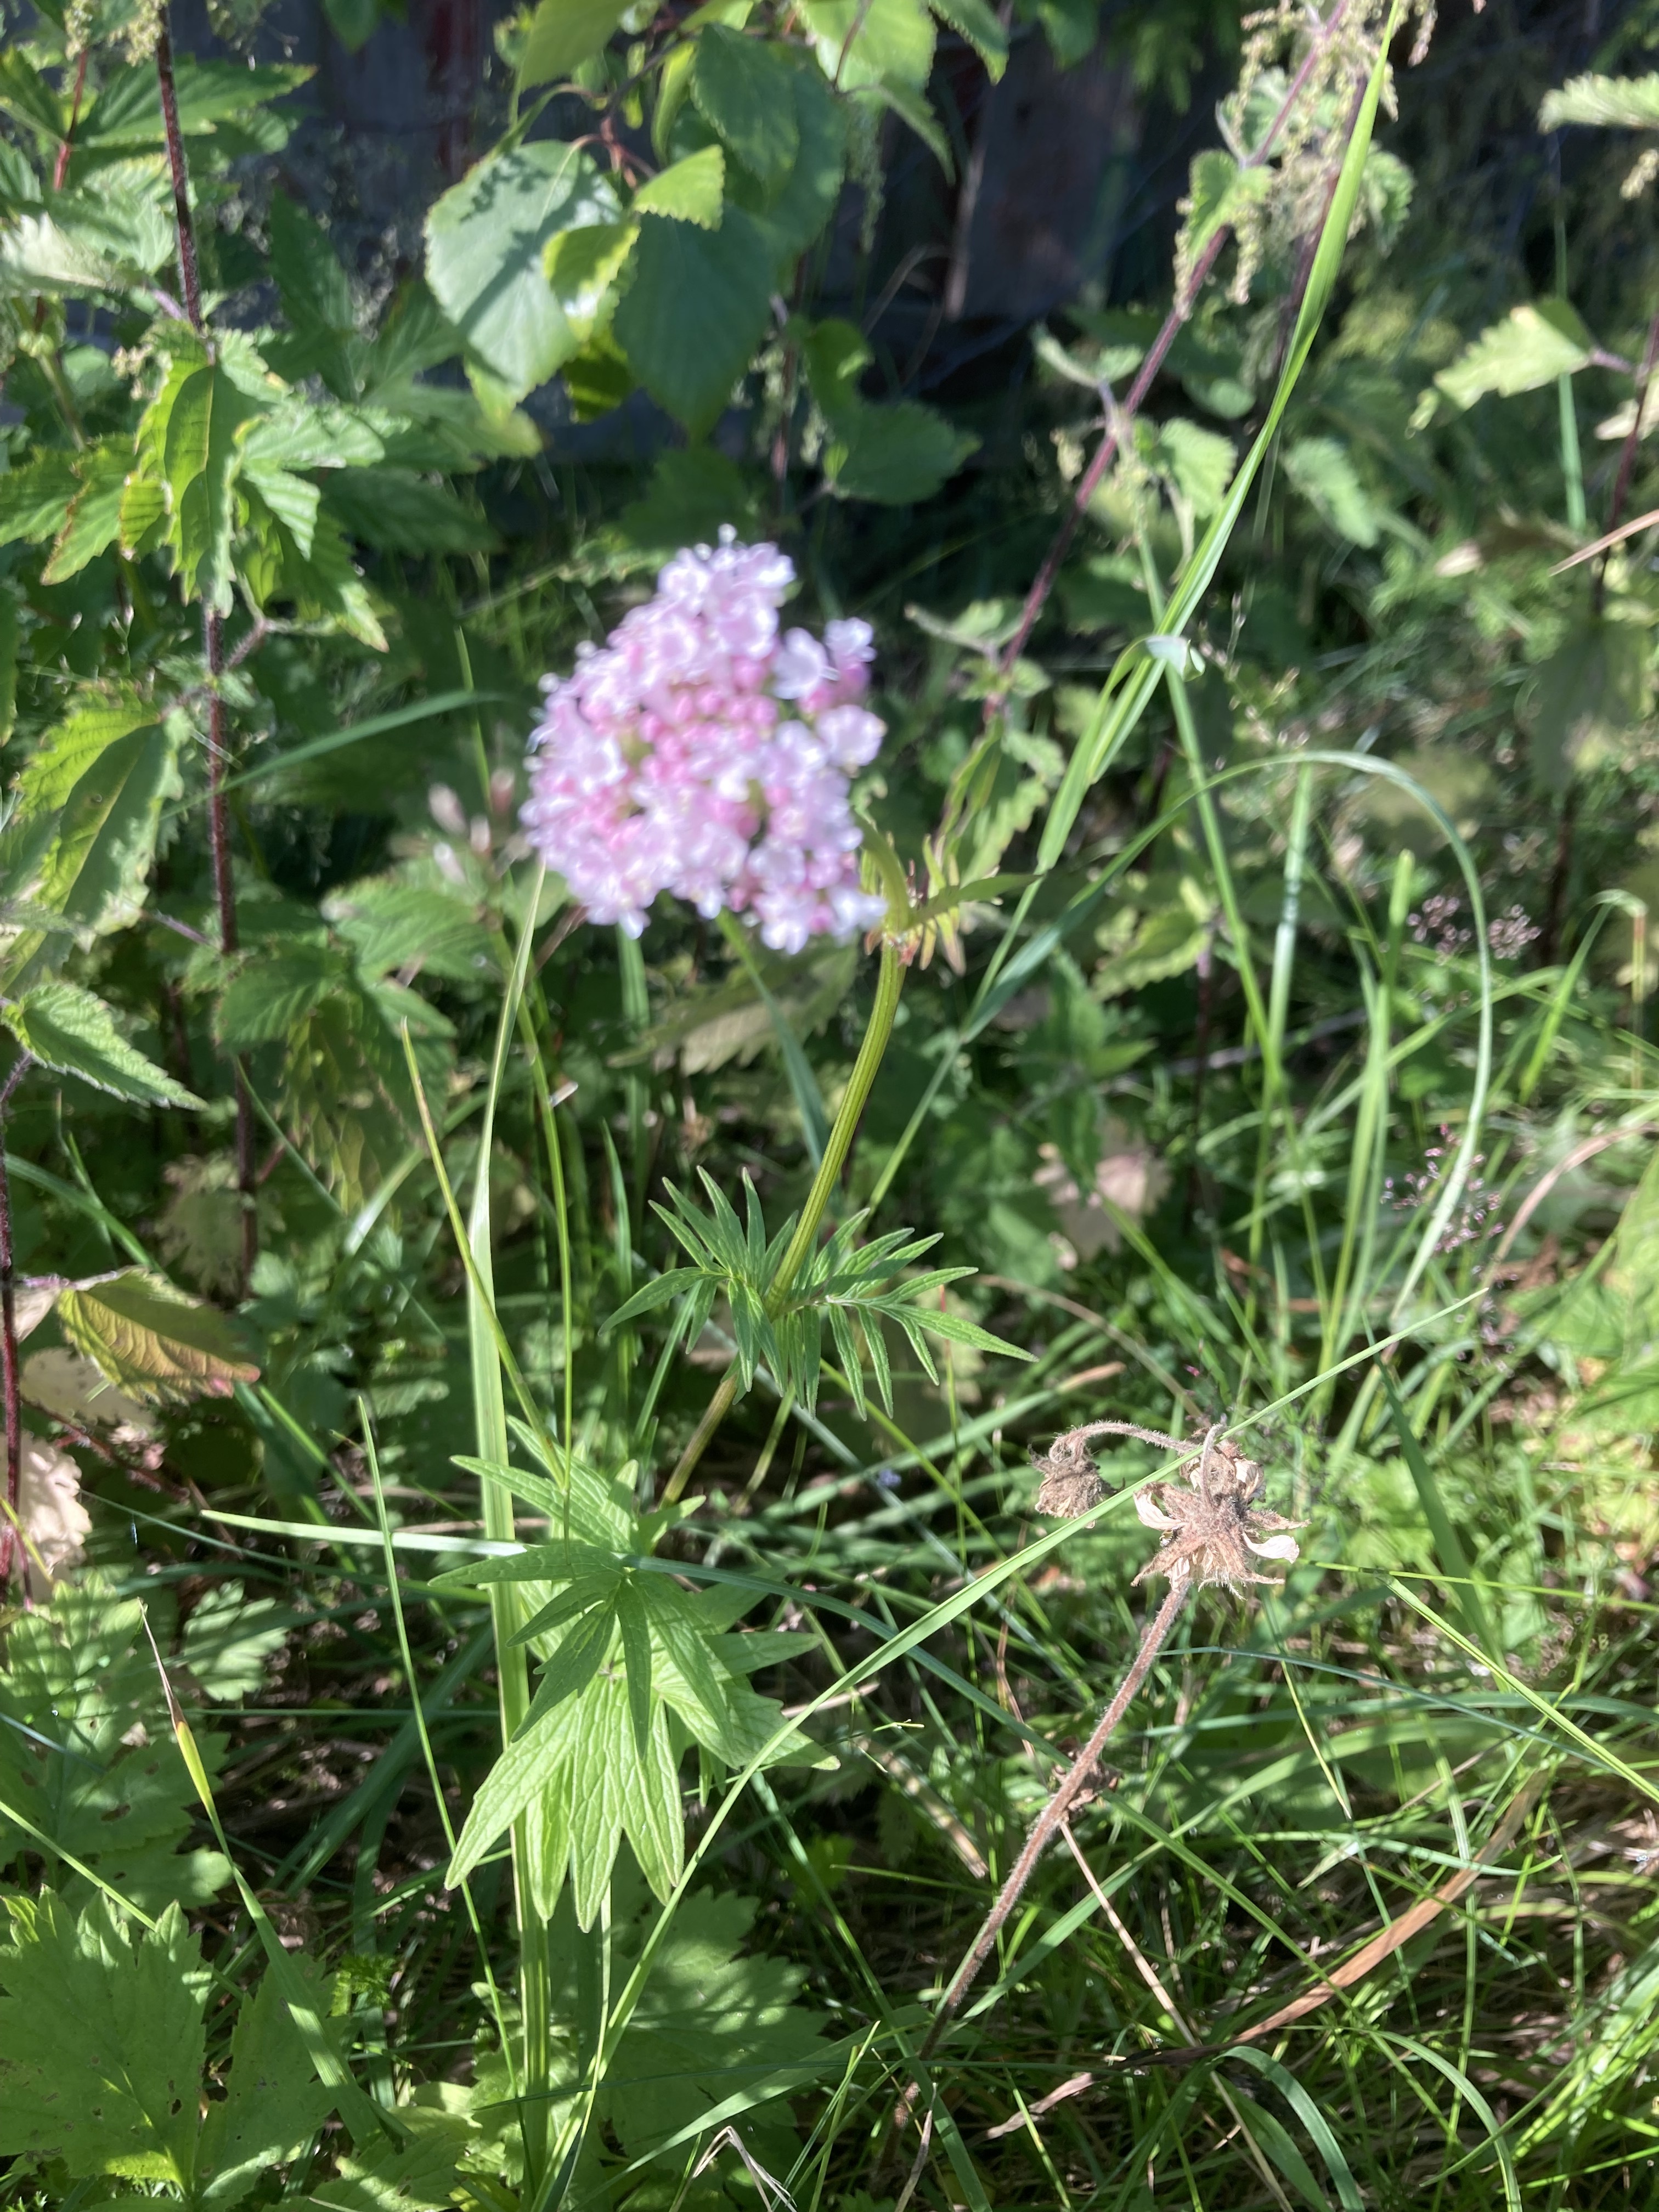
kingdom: Plantae
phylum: Tracheophyta
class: Magnoliopsida
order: Dipsacales
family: Caprifoliaceae
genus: Valeriana
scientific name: Valeriana officinalis
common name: Common valerian
